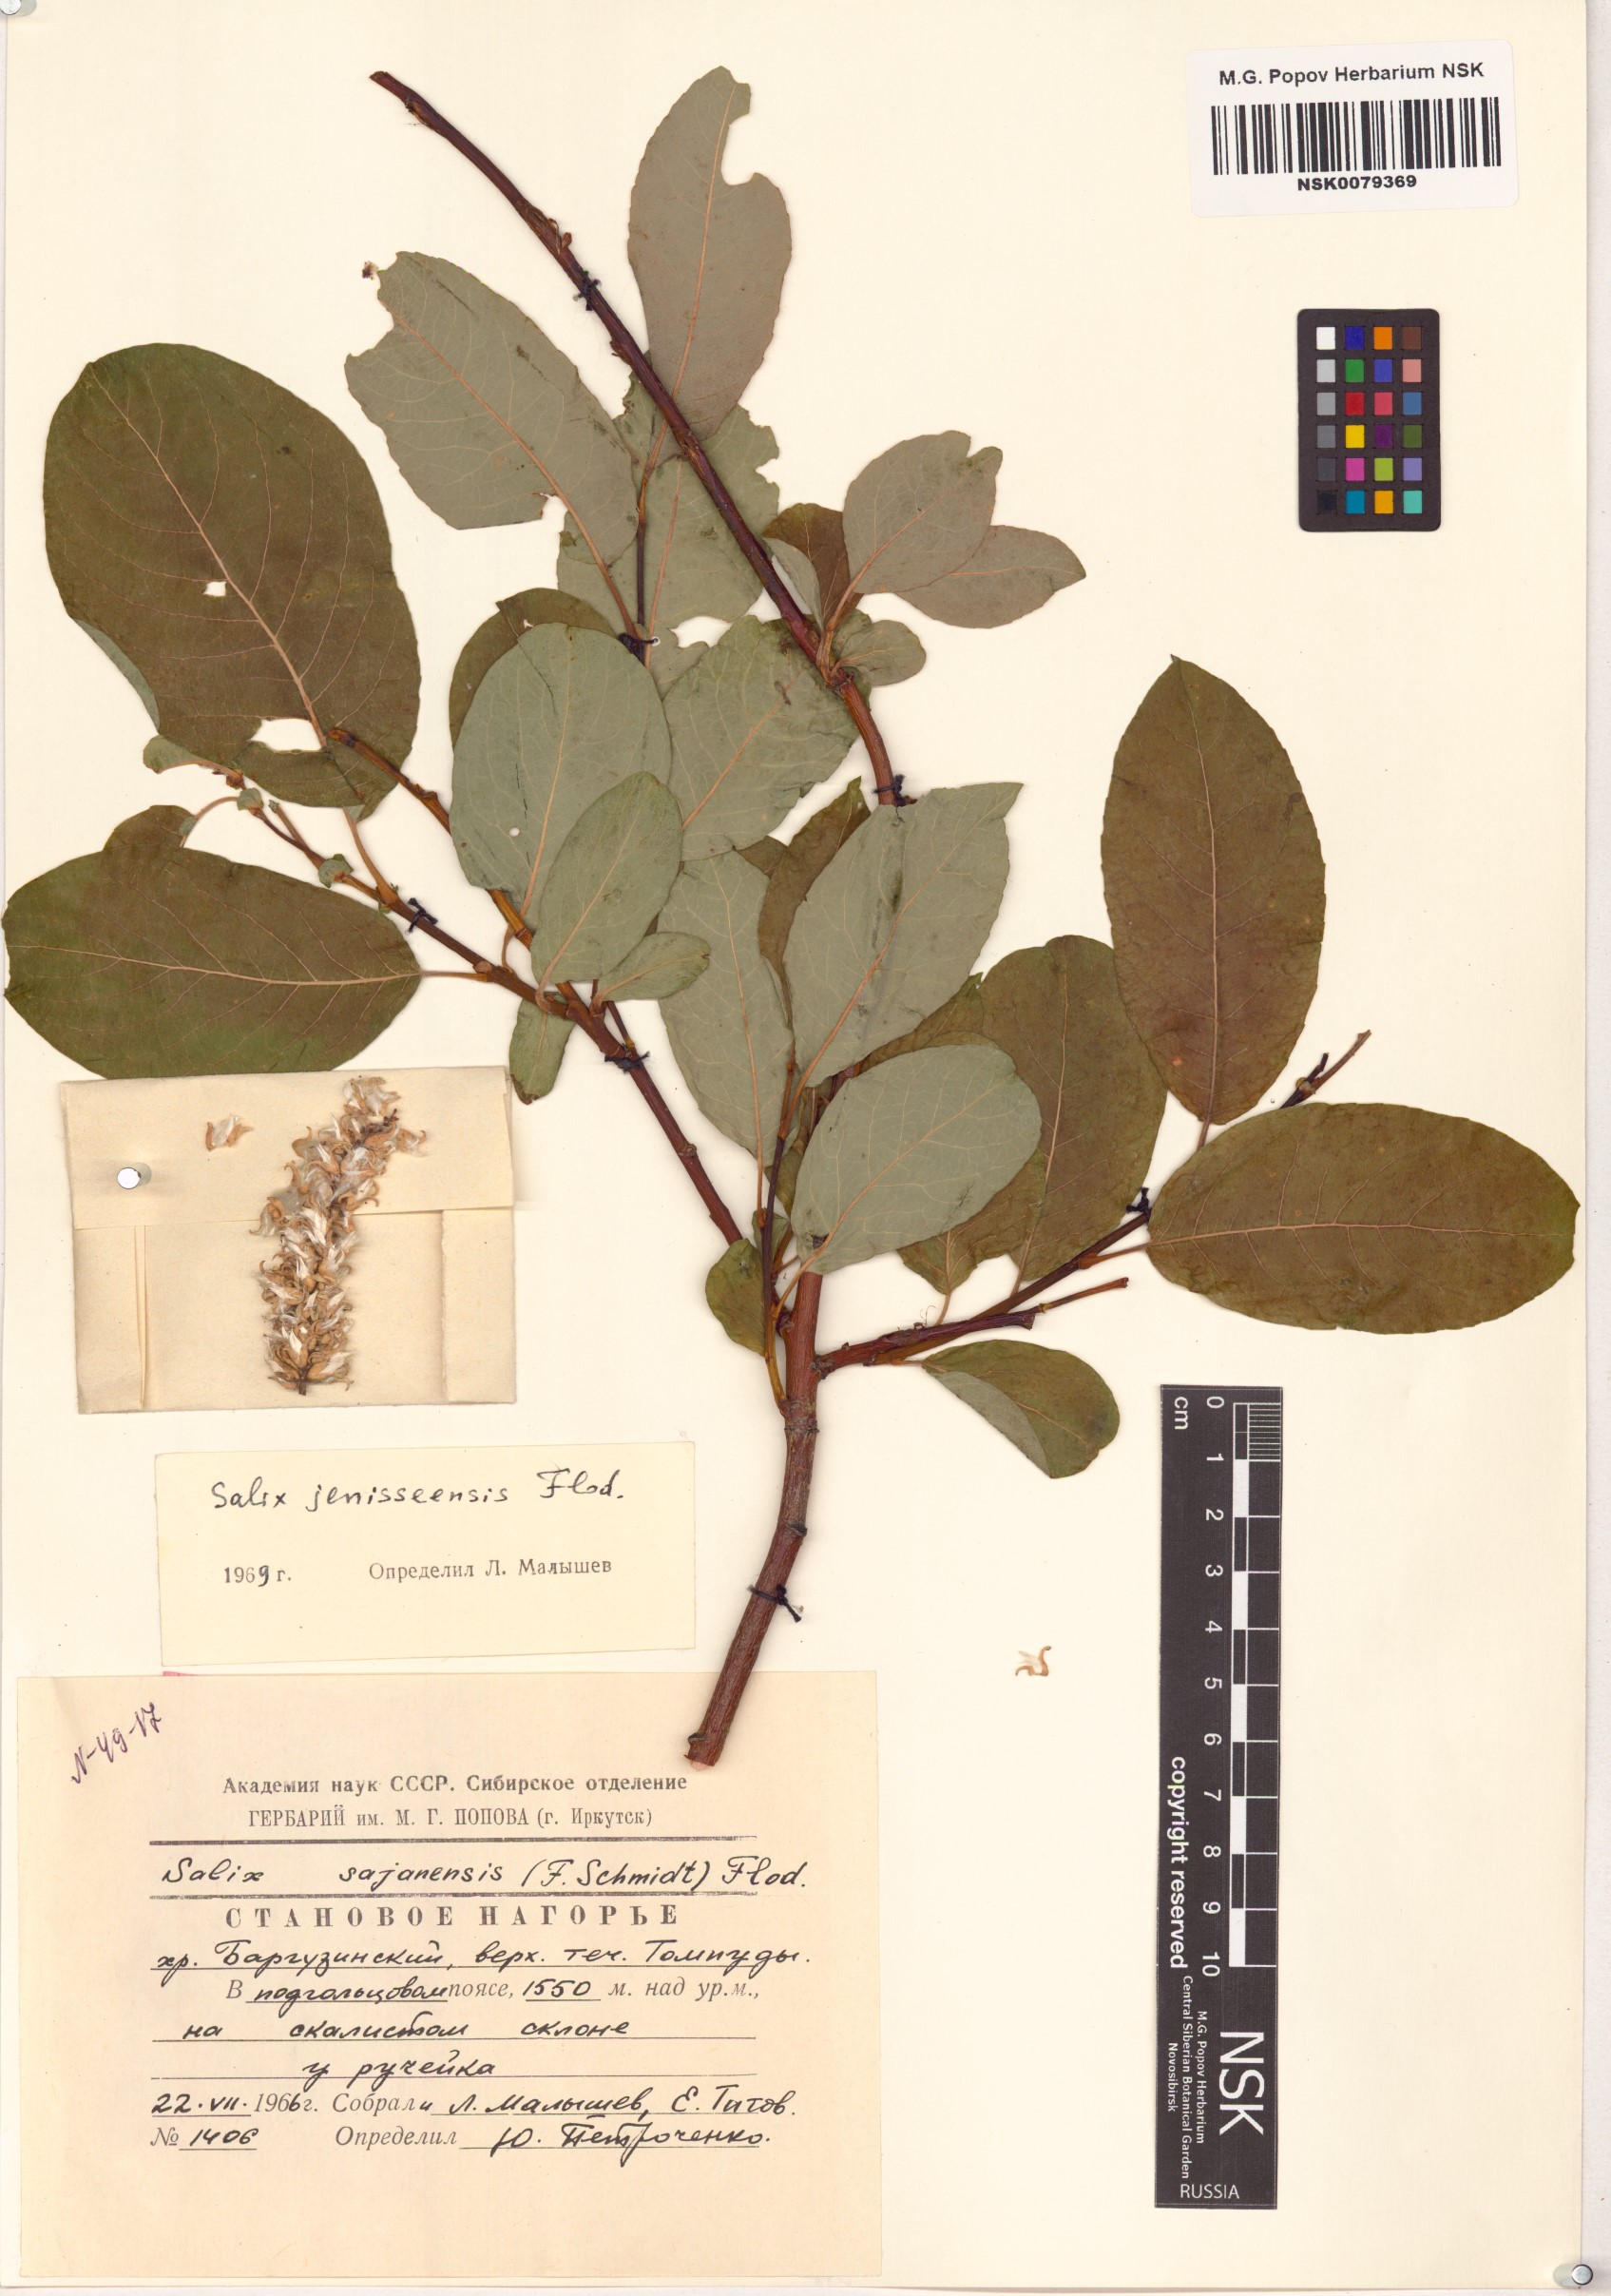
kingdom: Plantae
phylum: Tracheophyta
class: Magnoliopsida
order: Malpighiales
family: Salicaceae
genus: Salix
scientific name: Salix jenisseensis
